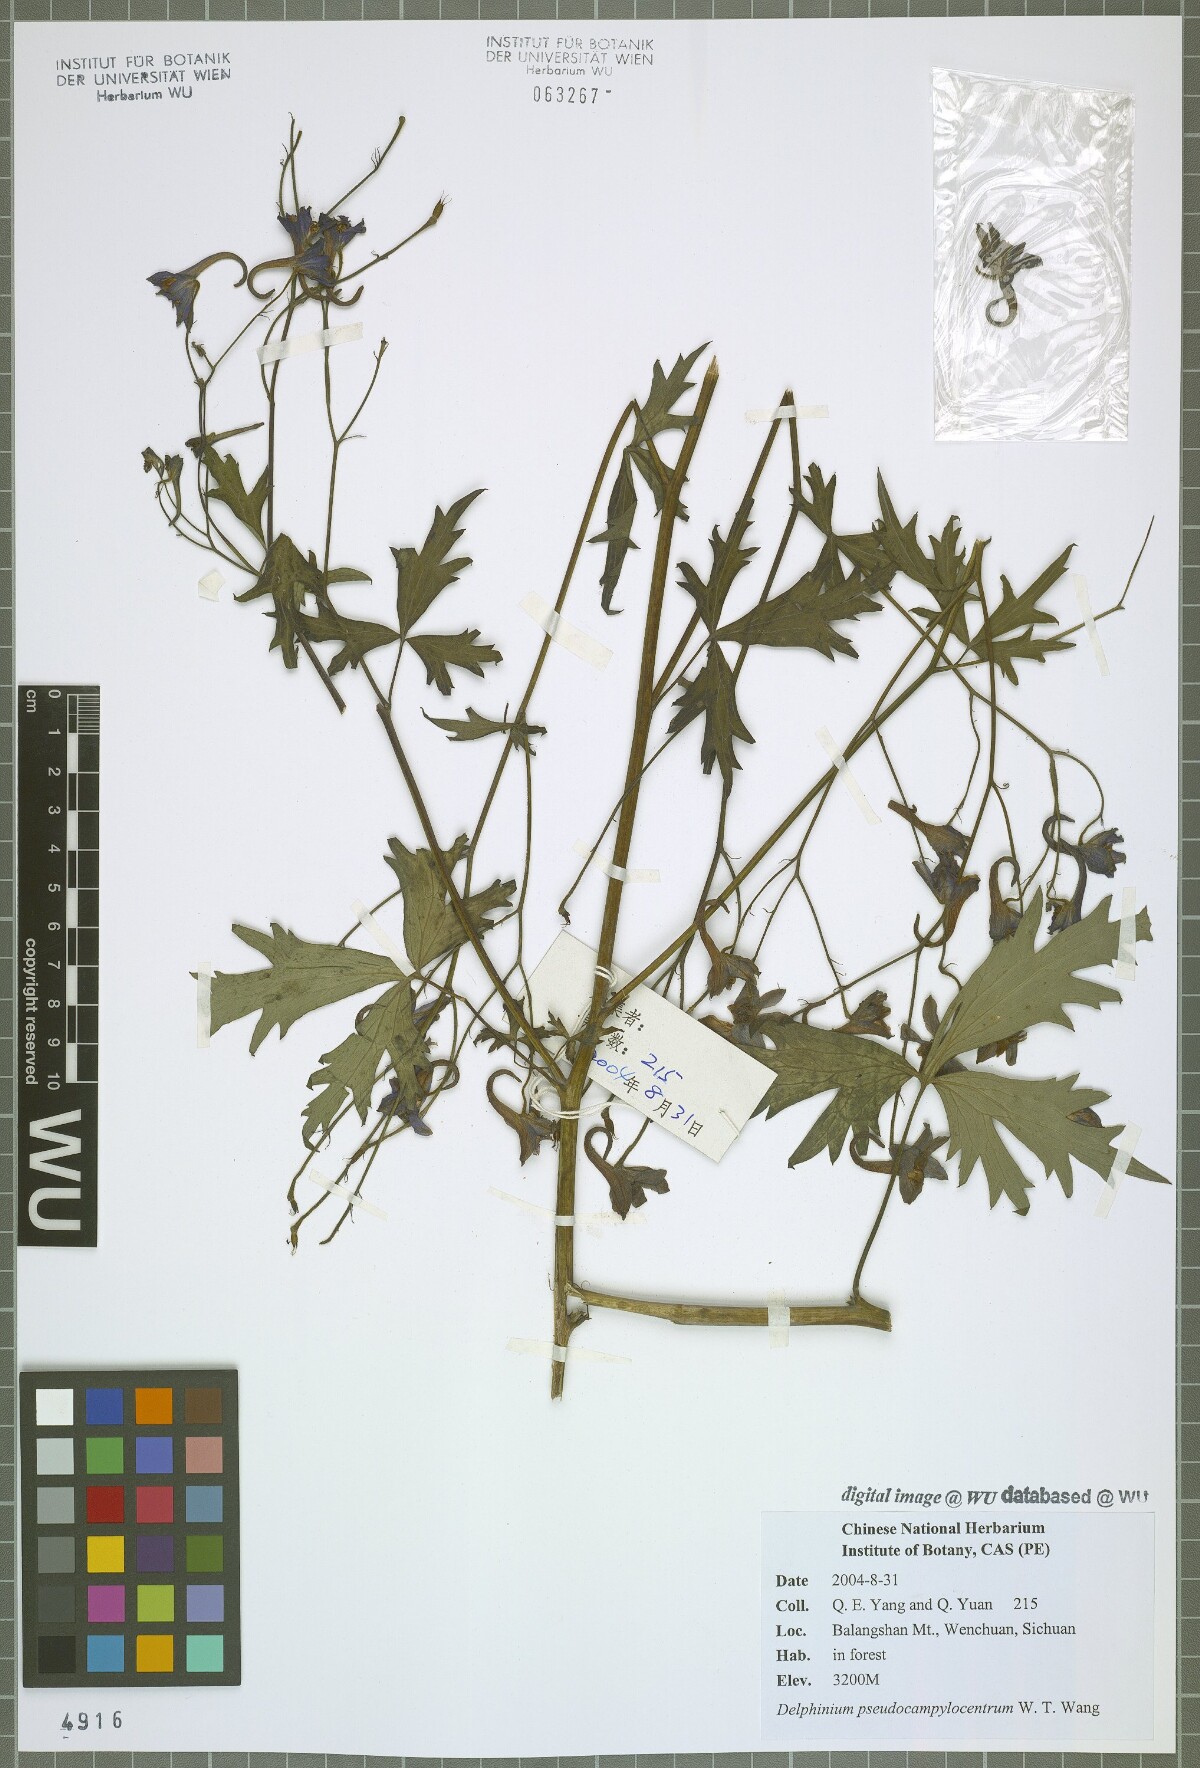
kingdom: Plantae
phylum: Tracheophyta
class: Magnoliopsida
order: Ranunculales
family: Ranunculaceae
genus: Delphinium
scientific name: Delphinium pseudocampylocentrum
